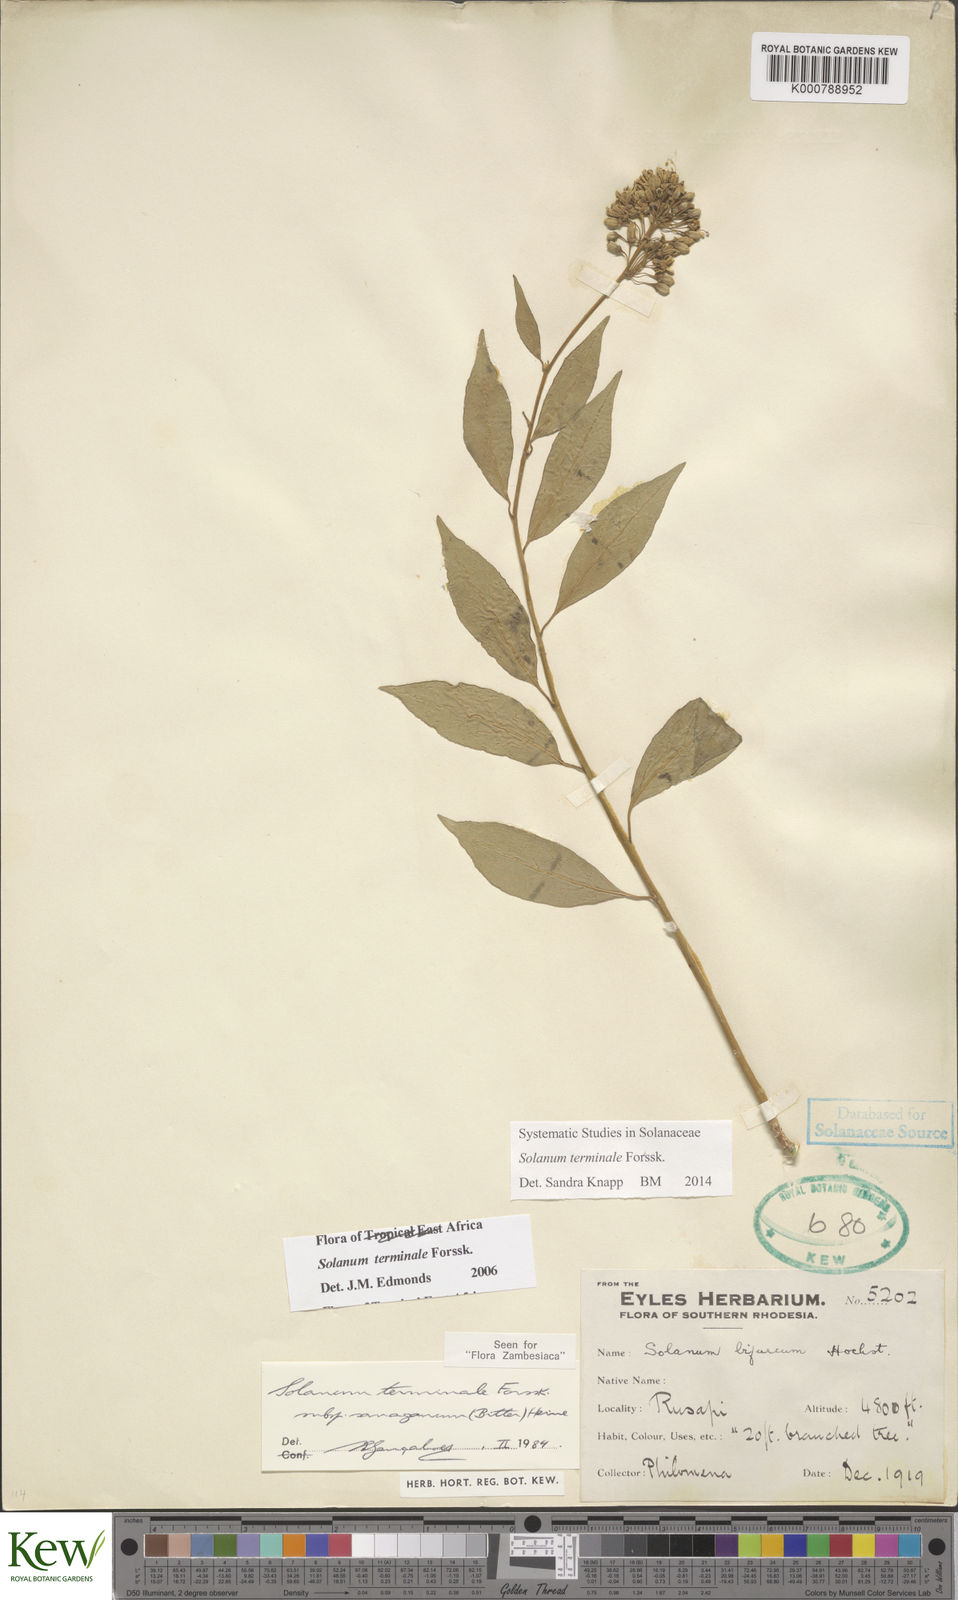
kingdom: Plantae
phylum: Tracheophyta
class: Magnoliopsida
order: Solanales
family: Solanaceae
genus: Solanum
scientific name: Solanum terminale
